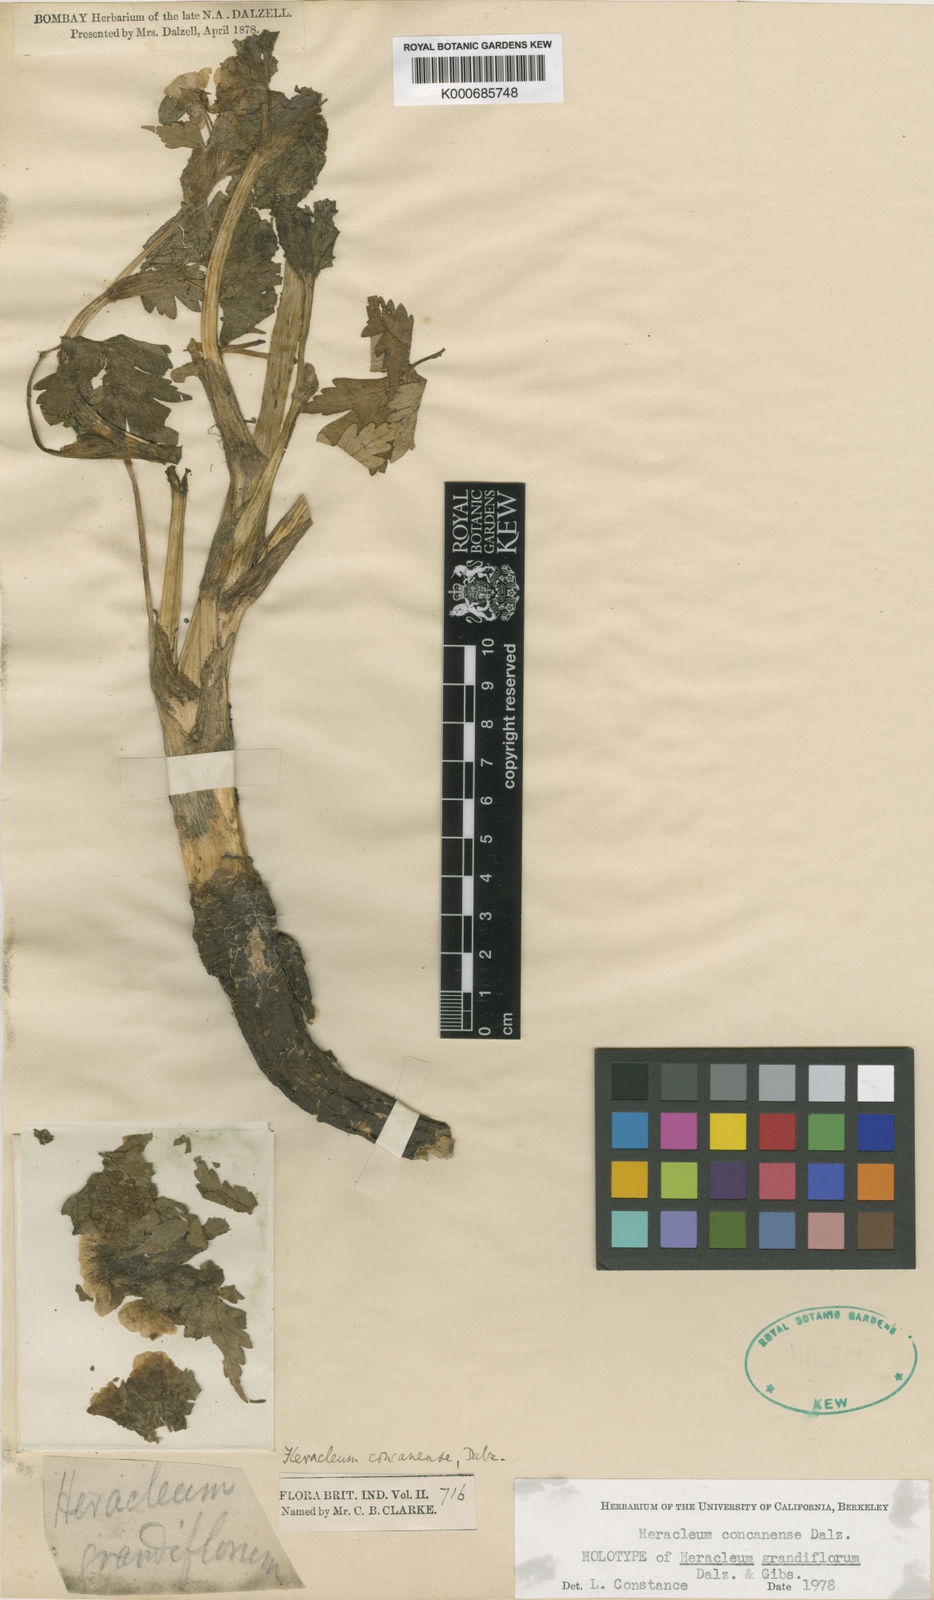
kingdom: Plantae
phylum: Tracheophyta
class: Magnoliopsida
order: Apiales
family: Apiaceae
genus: Pinda
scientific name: Pinda concanensis
